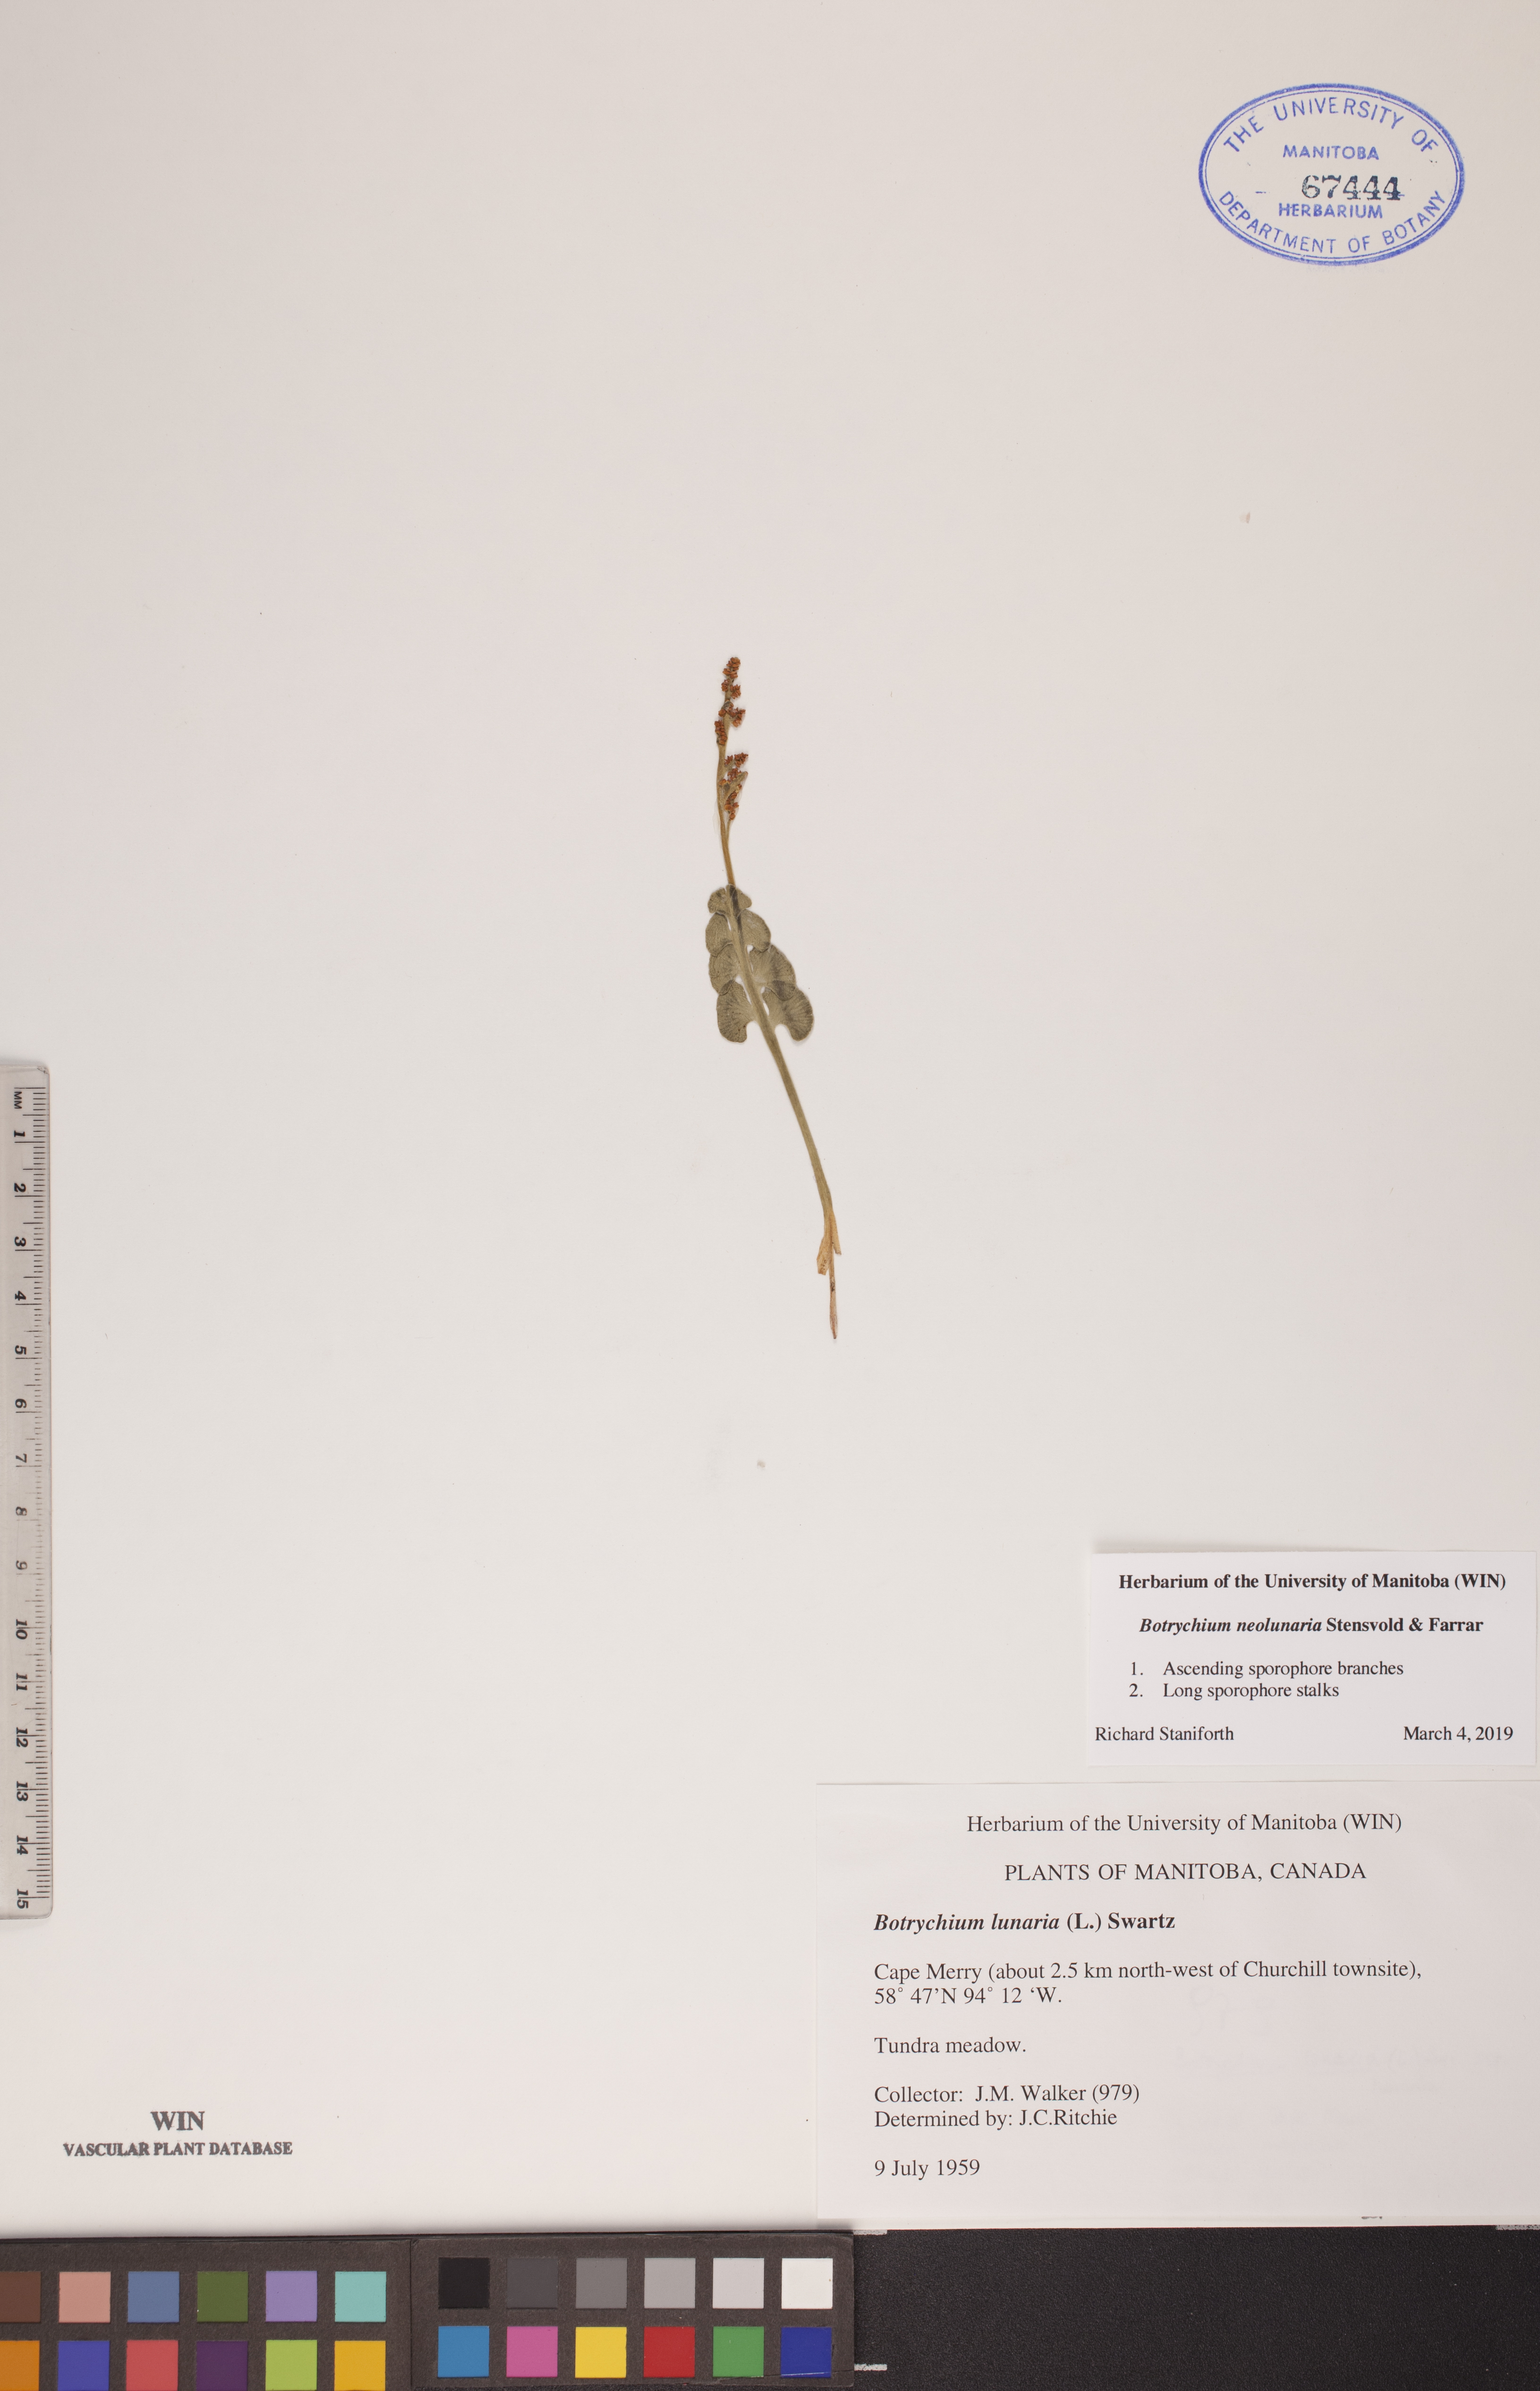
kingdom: Plantae
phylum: Tracheophyta
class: Polypodiopsida
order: Ophioglossales
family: Ophioglossaceae
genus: Botrychium
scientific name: Botrychium neolunaria
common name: New world moonwort
